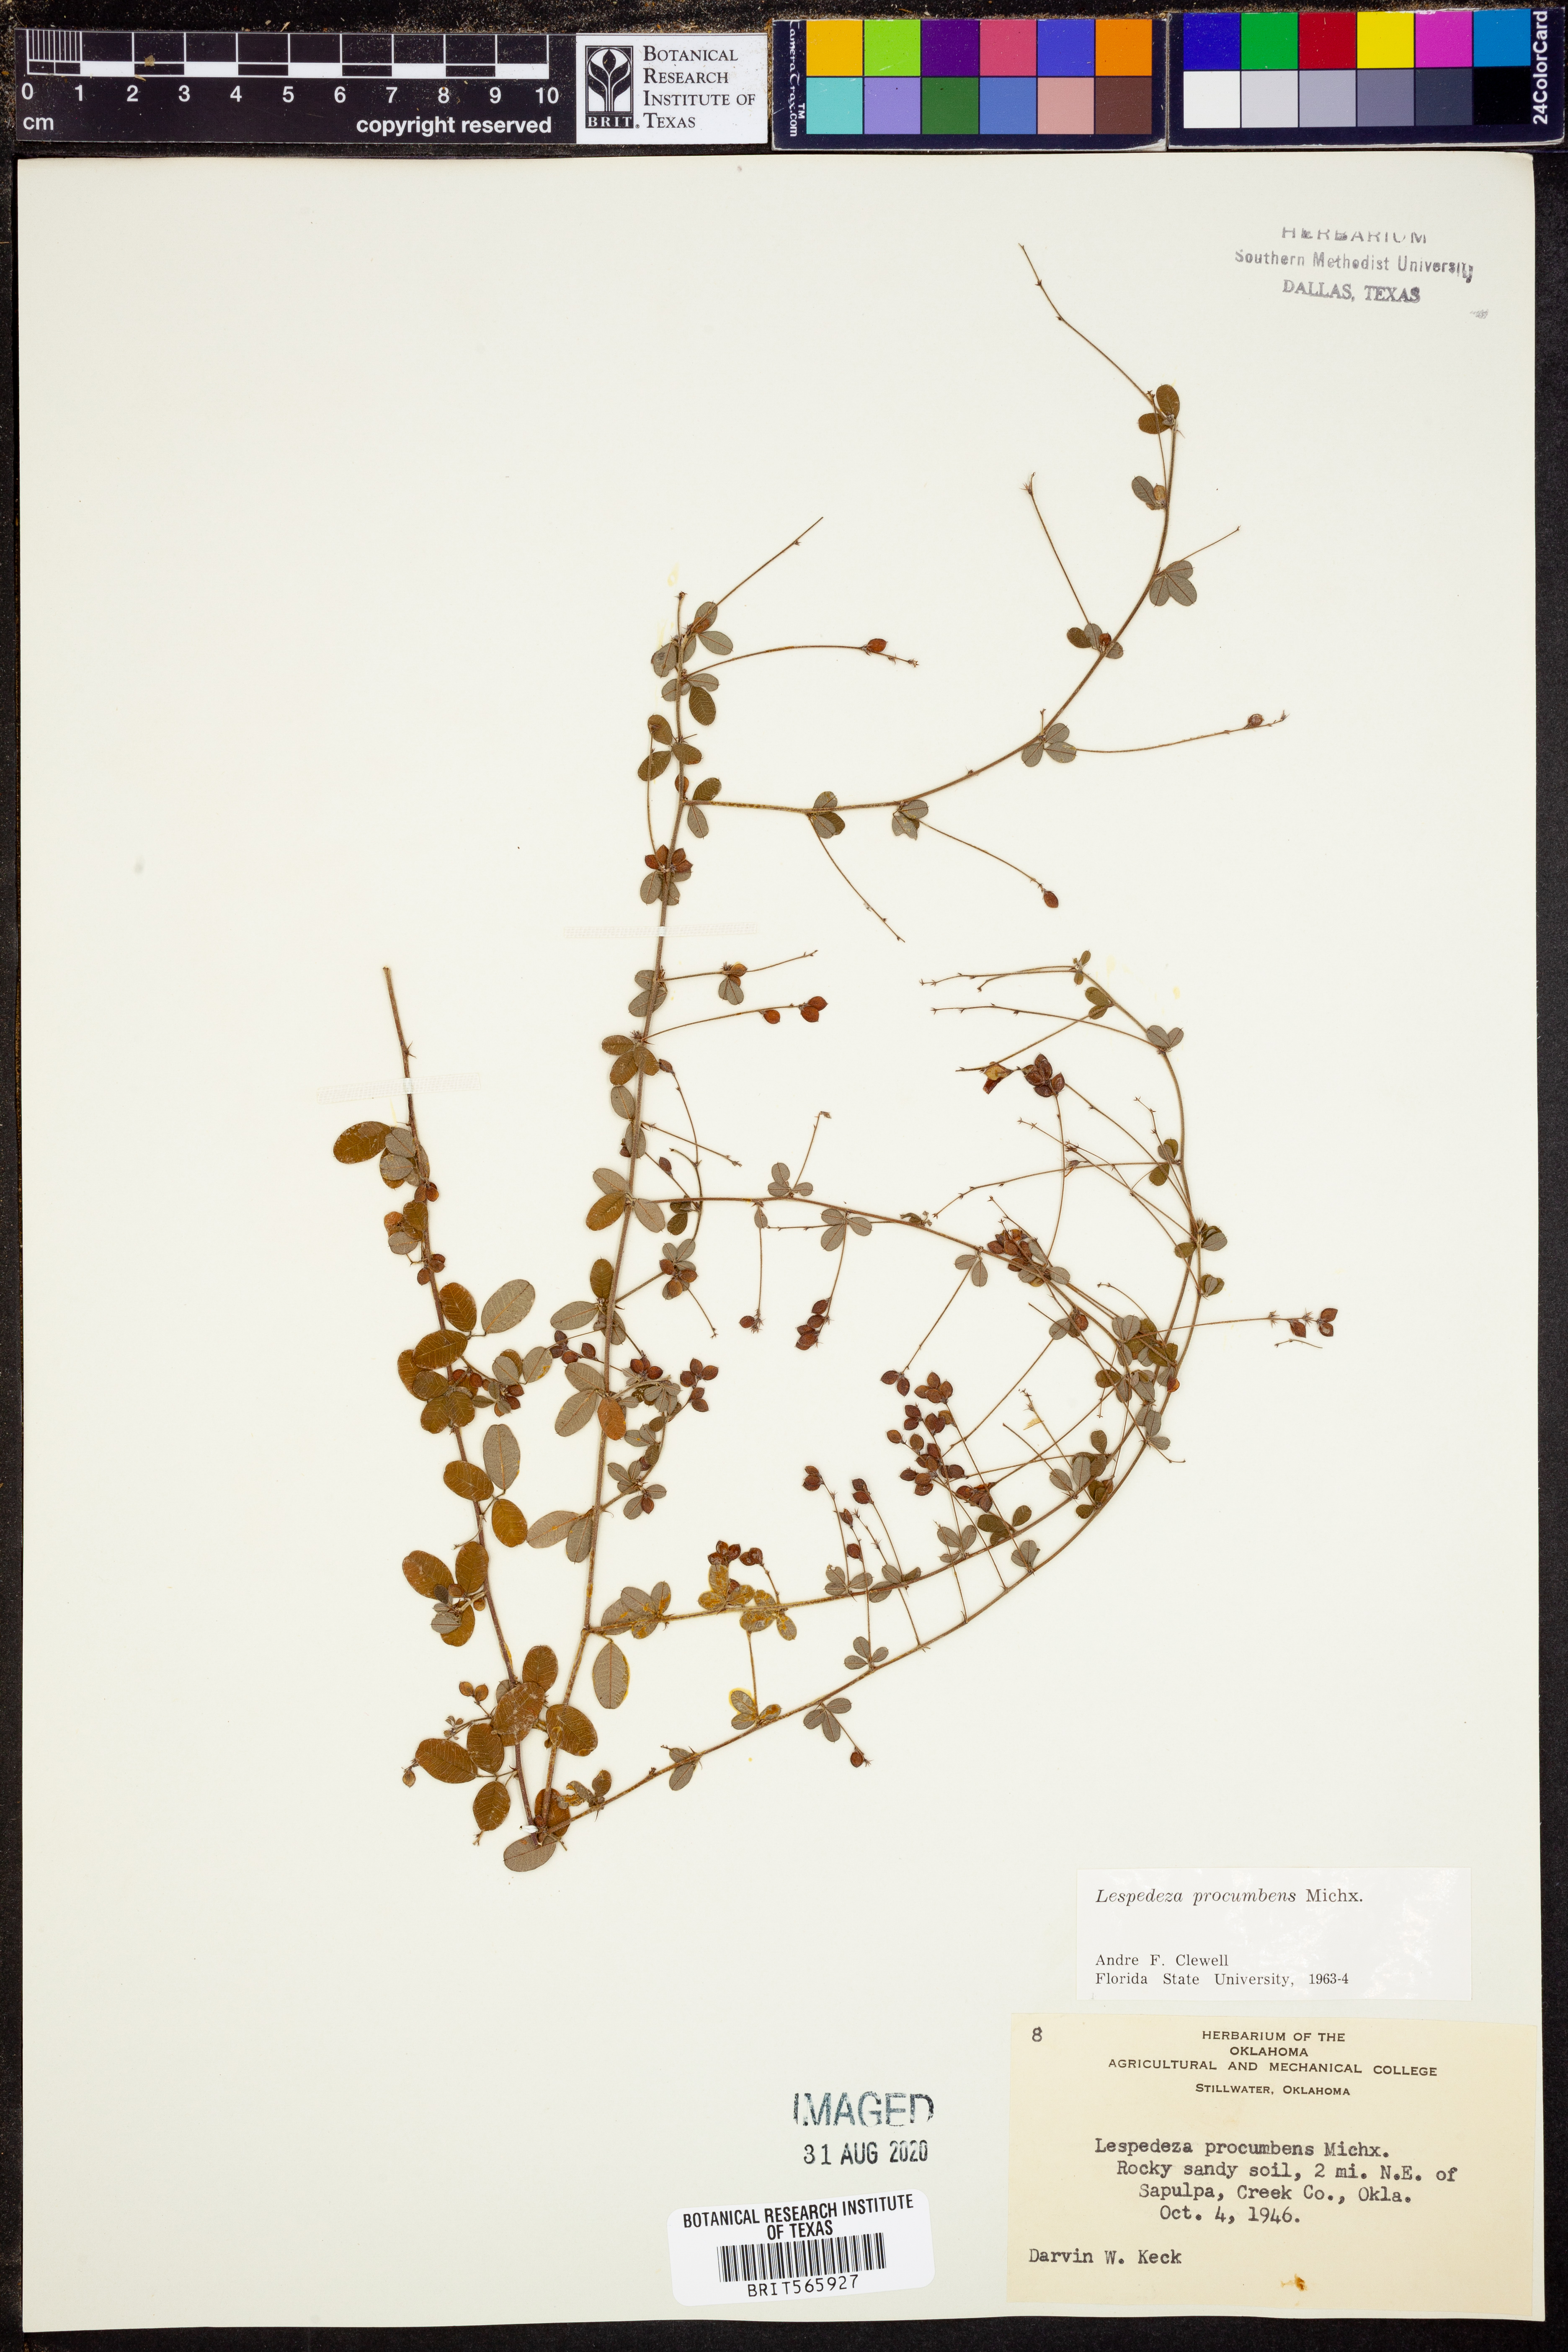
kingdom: Plantae
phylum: Tracheophyta
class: Magnoliopsida
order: Fabales
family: Fabaceae
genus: Lespedeza
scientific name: Lespedeza procumbens
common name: Downy trailing bush-clover
